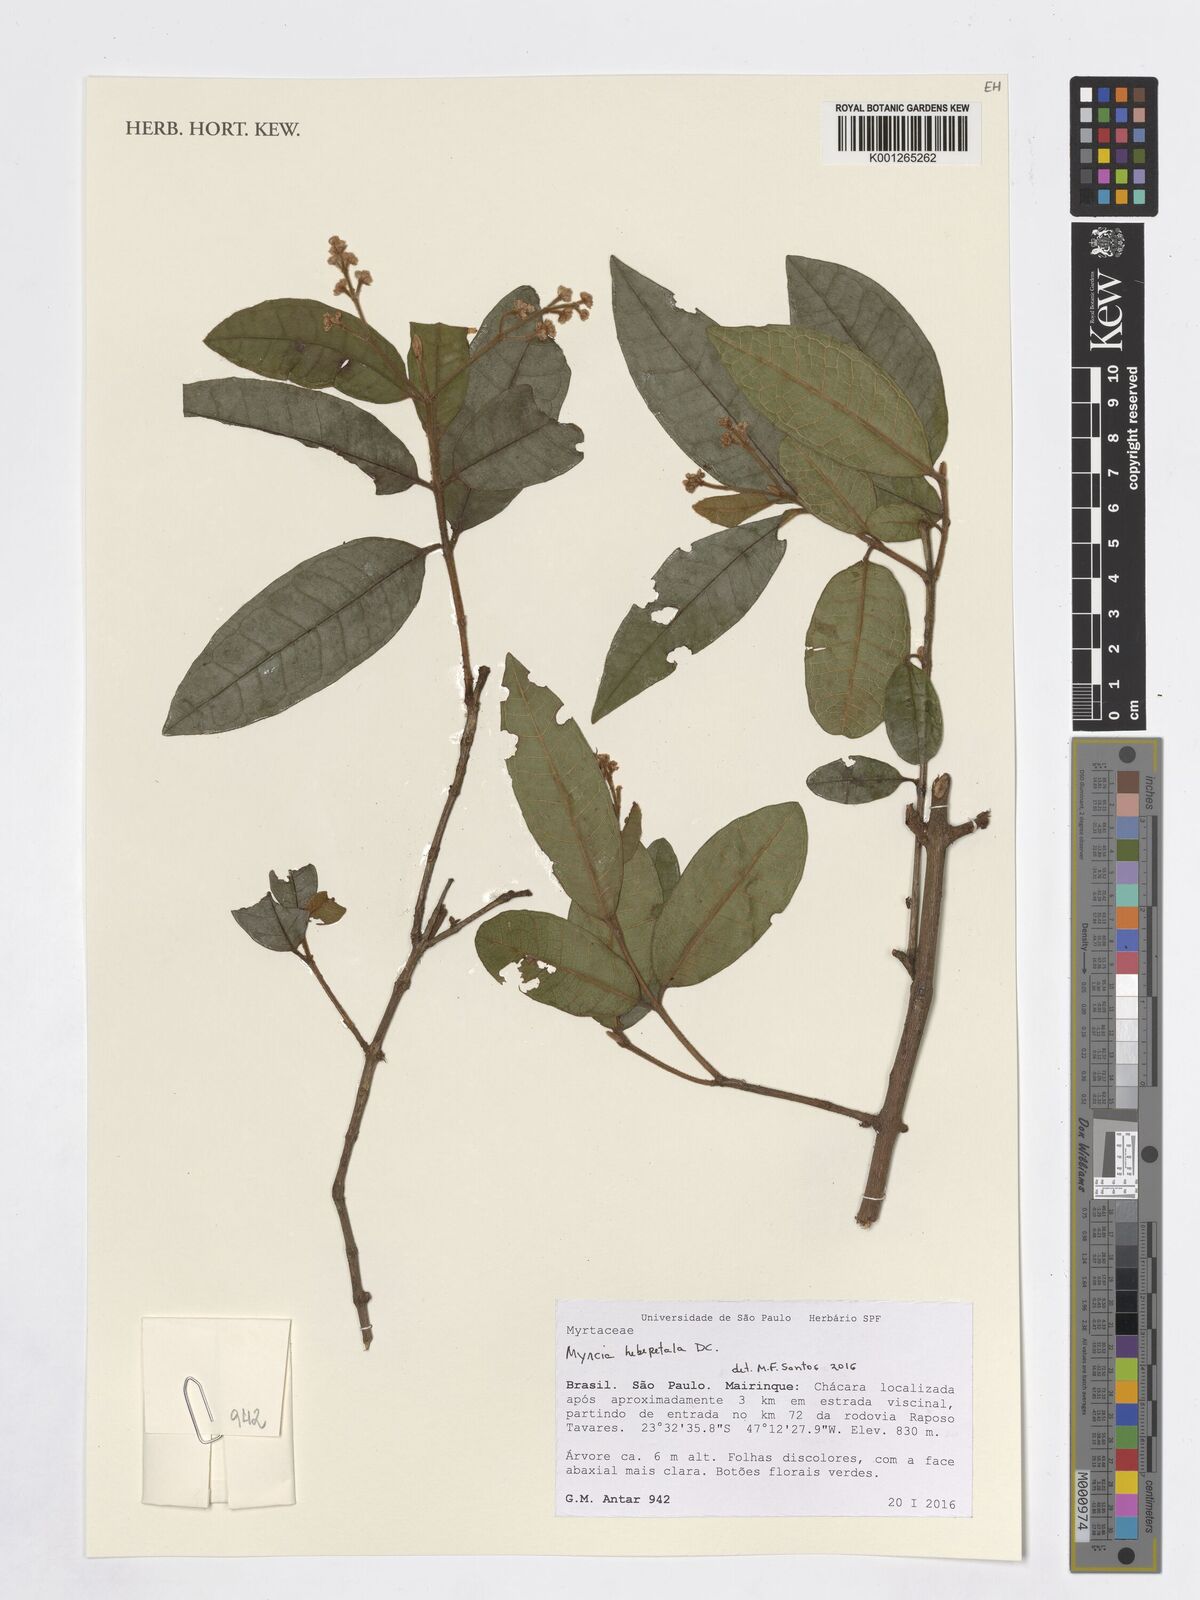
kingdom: Plantae
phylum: Tracheophyta
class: Magnoliopsida
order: Myrtales
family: Myrtaceae
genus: Myrcia
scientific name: Myrcia hebepetala
